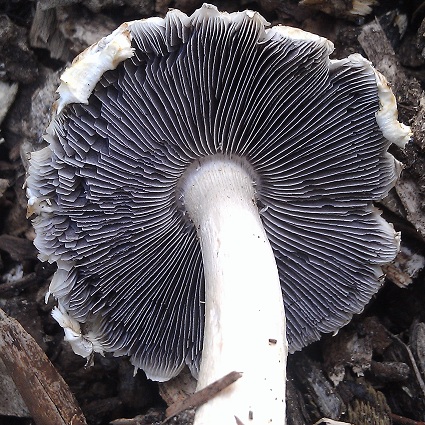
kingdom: Fungi
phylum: Basidiomycota
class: Agaricomycetes
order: Agaricales
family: Strophariaceae
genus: Stropharia
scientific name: Stropharia rugosoannulata
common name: rødbrun bredblad
